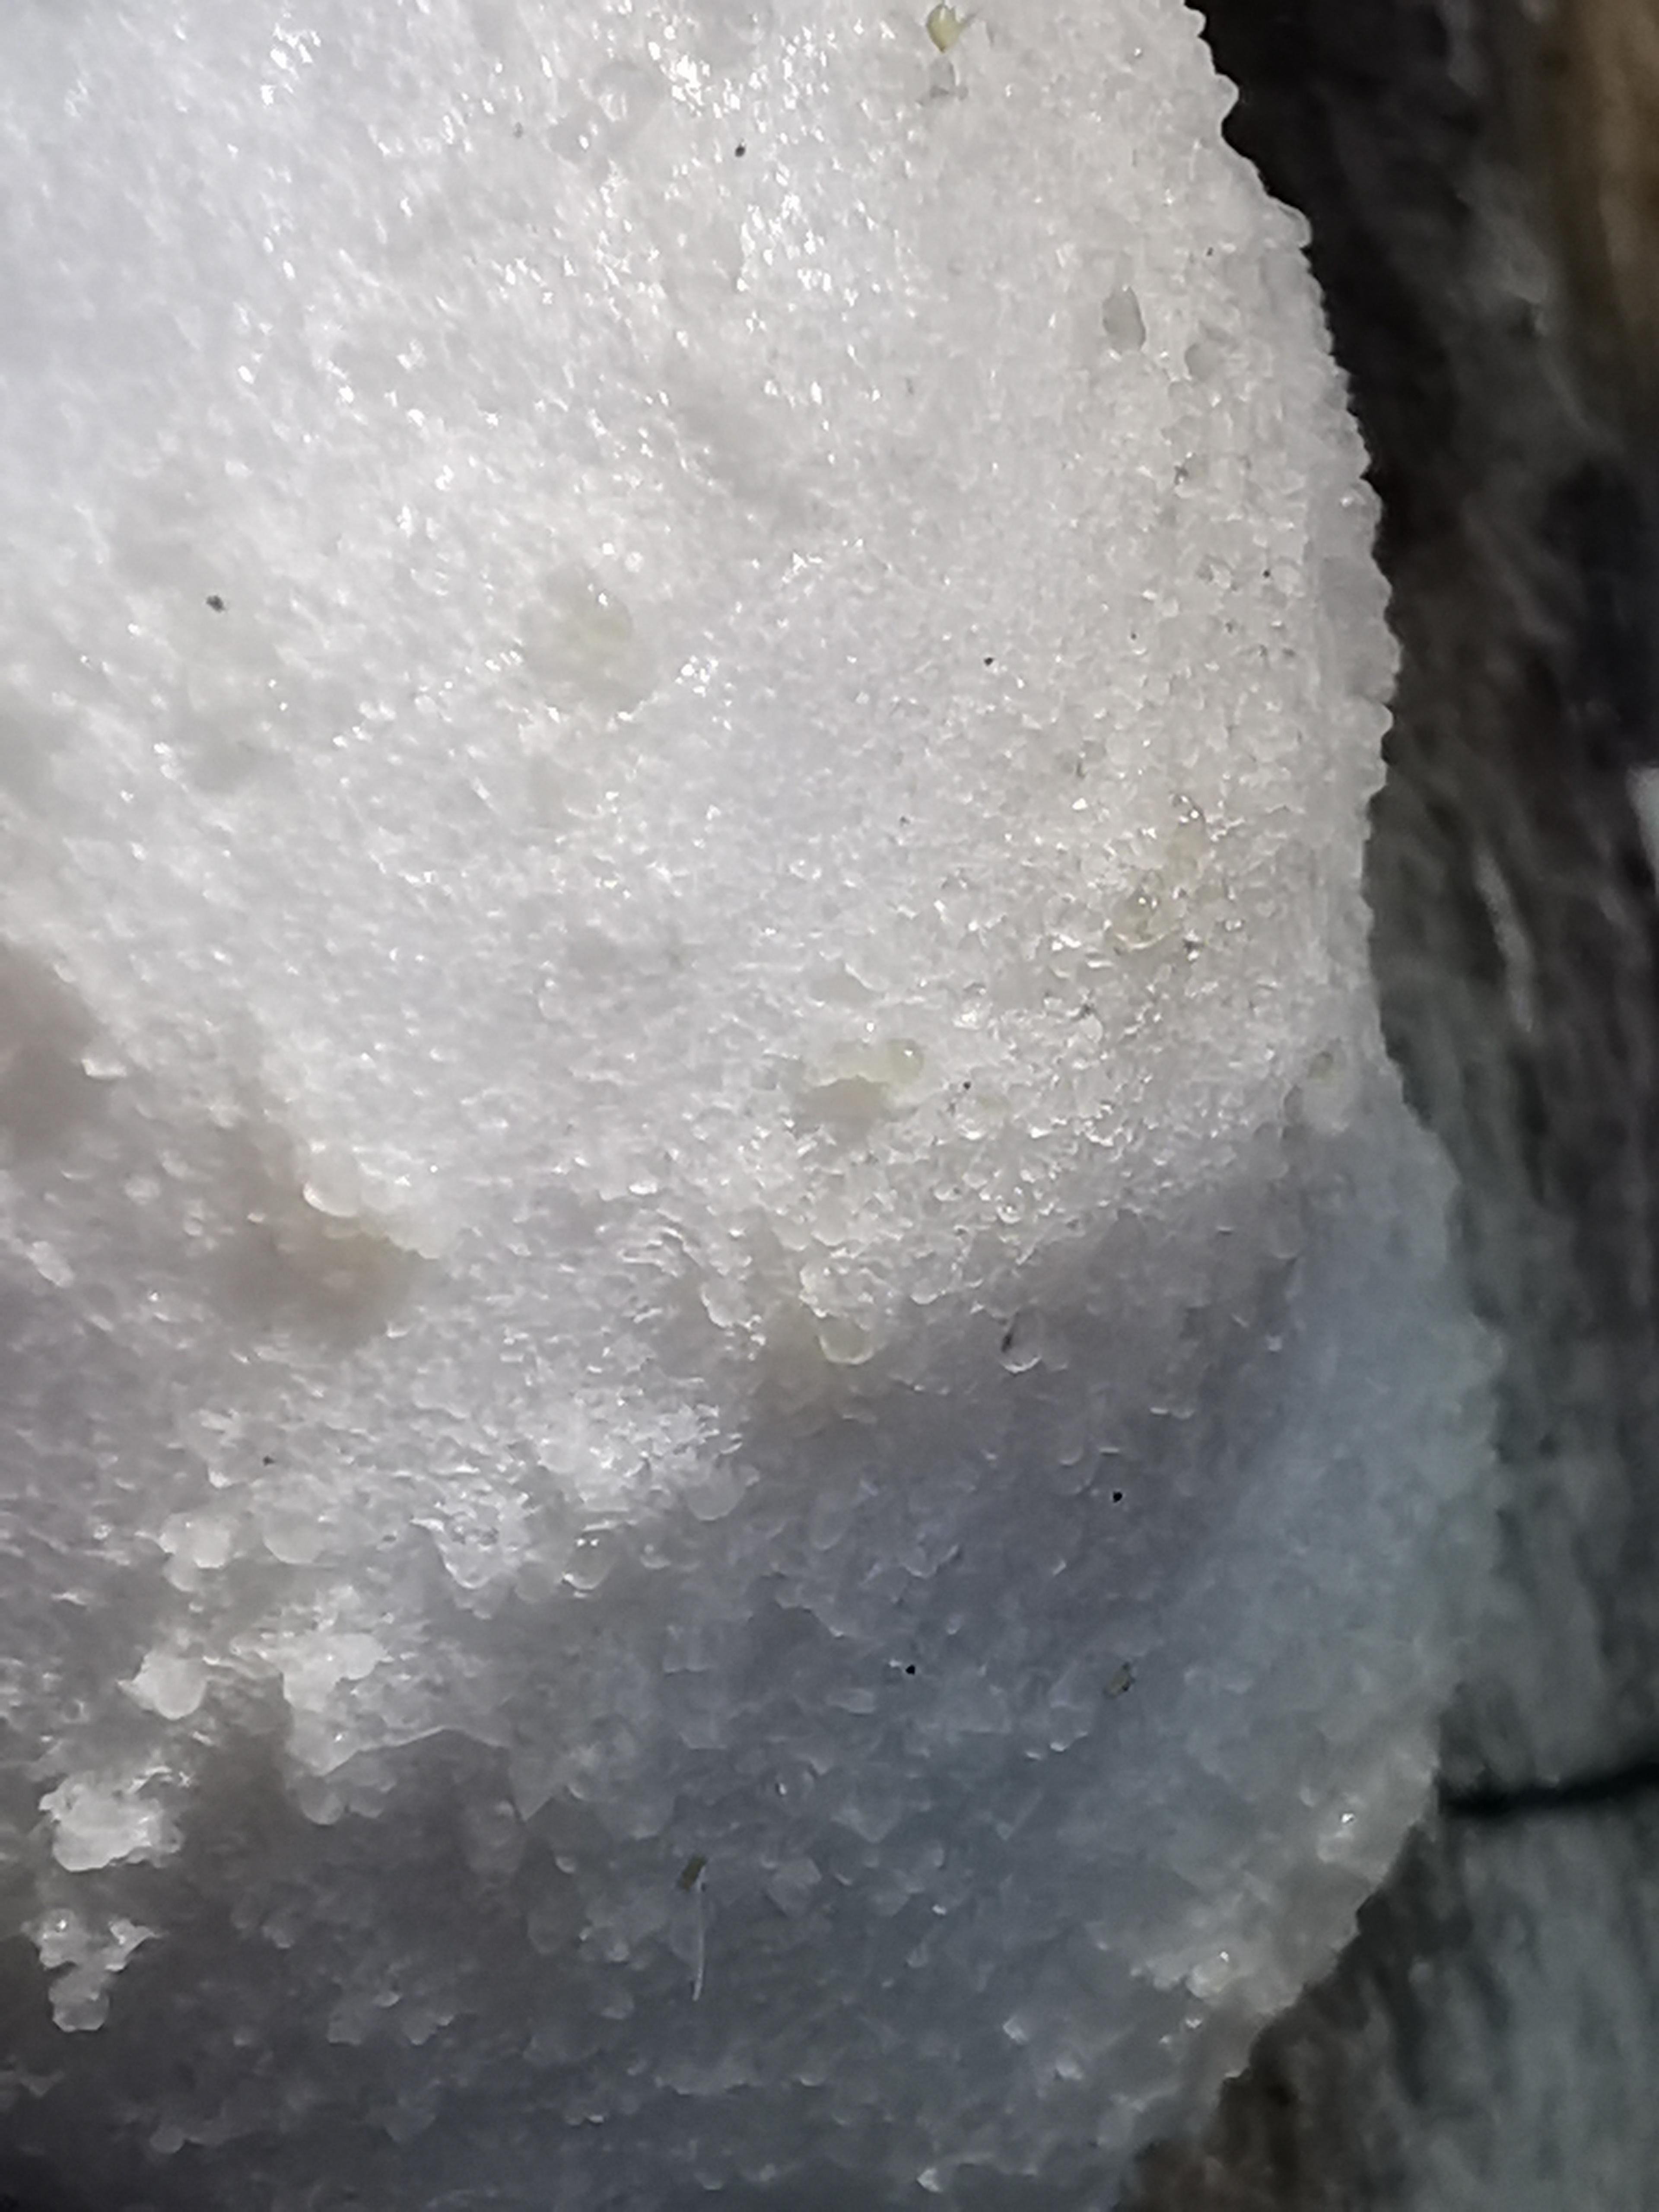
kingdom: Protozoa
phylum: Mycetozoa
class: Myxomycetes
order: Cribrariales
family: Tubiferaceae
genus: Reticularia
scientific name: Reticularia lycoperdon
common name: skinnende støvpude
